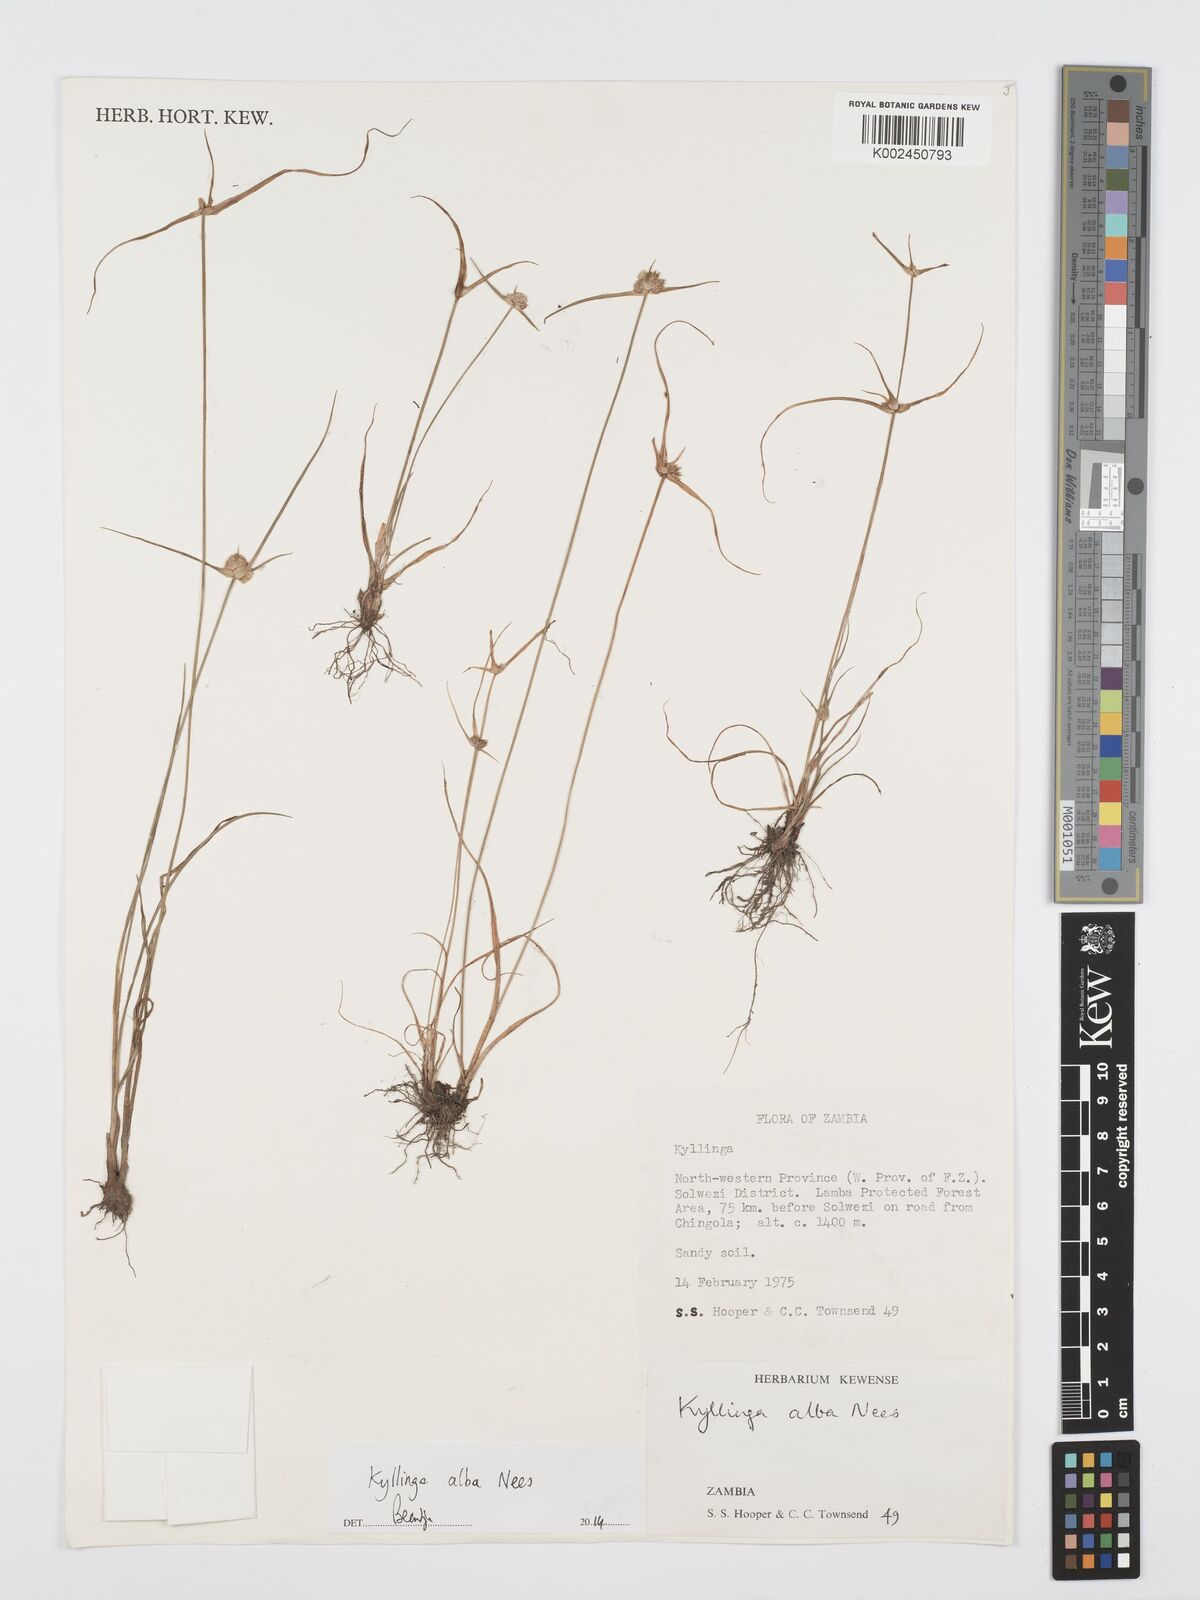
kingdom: Plantae
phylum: Tracheophyta
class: Liliopsida
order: Poales
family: Cyperaceae
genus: Cyperus
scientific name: Cyperus
